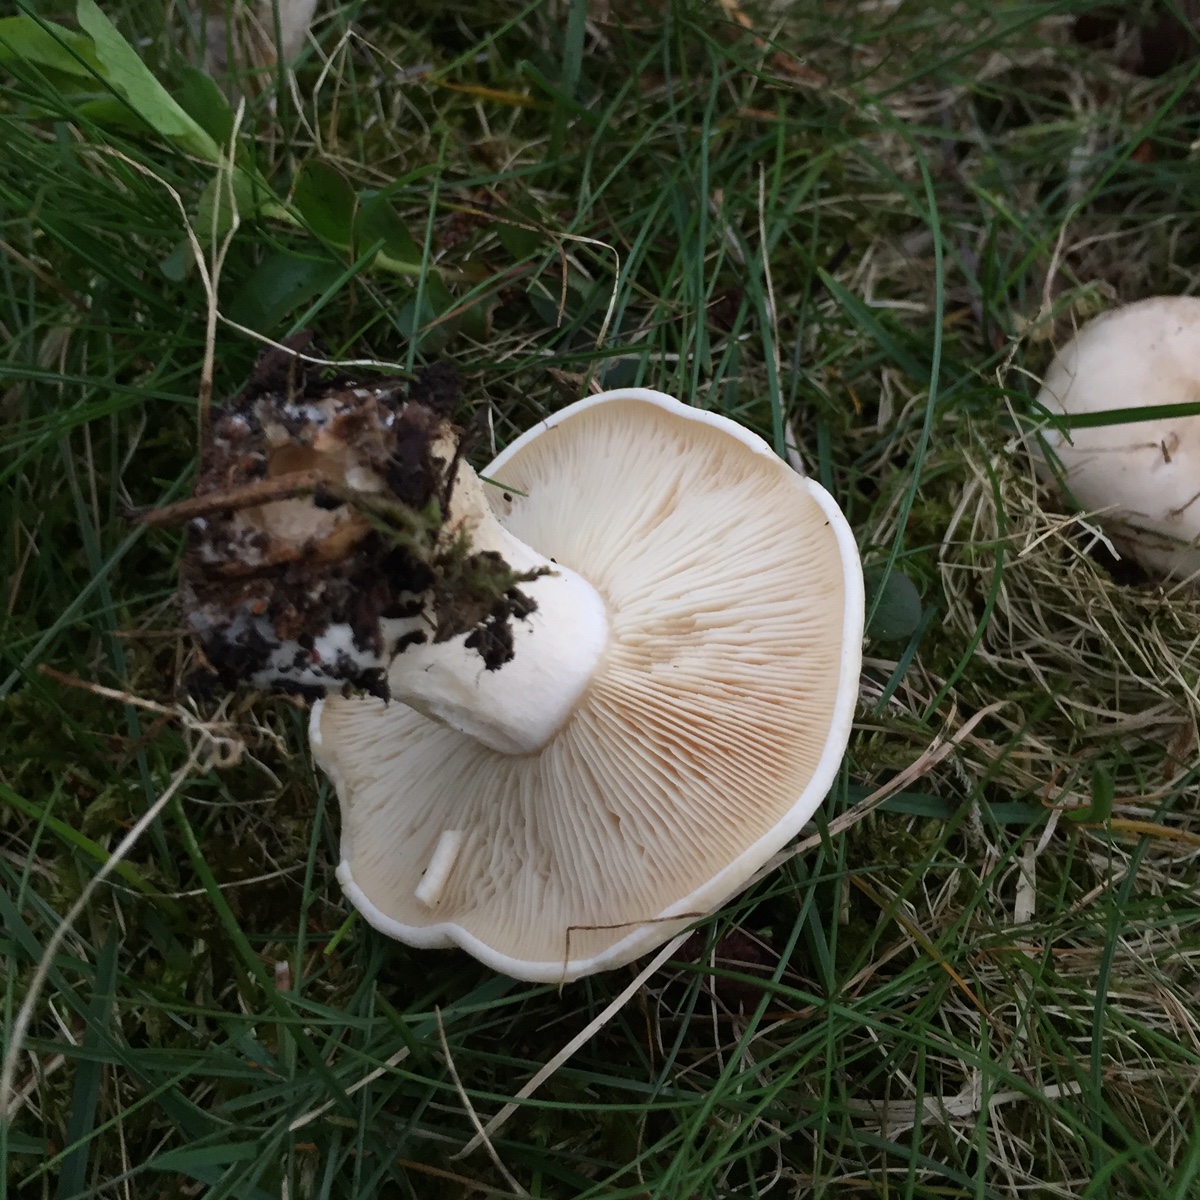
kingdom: Fungi
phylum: Basidiomycota
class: Agaricomycetes
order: Agaricales
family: Lyophyllaceae
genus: Calocybe
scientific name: Calocybe gambosa
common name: vårmusseron
